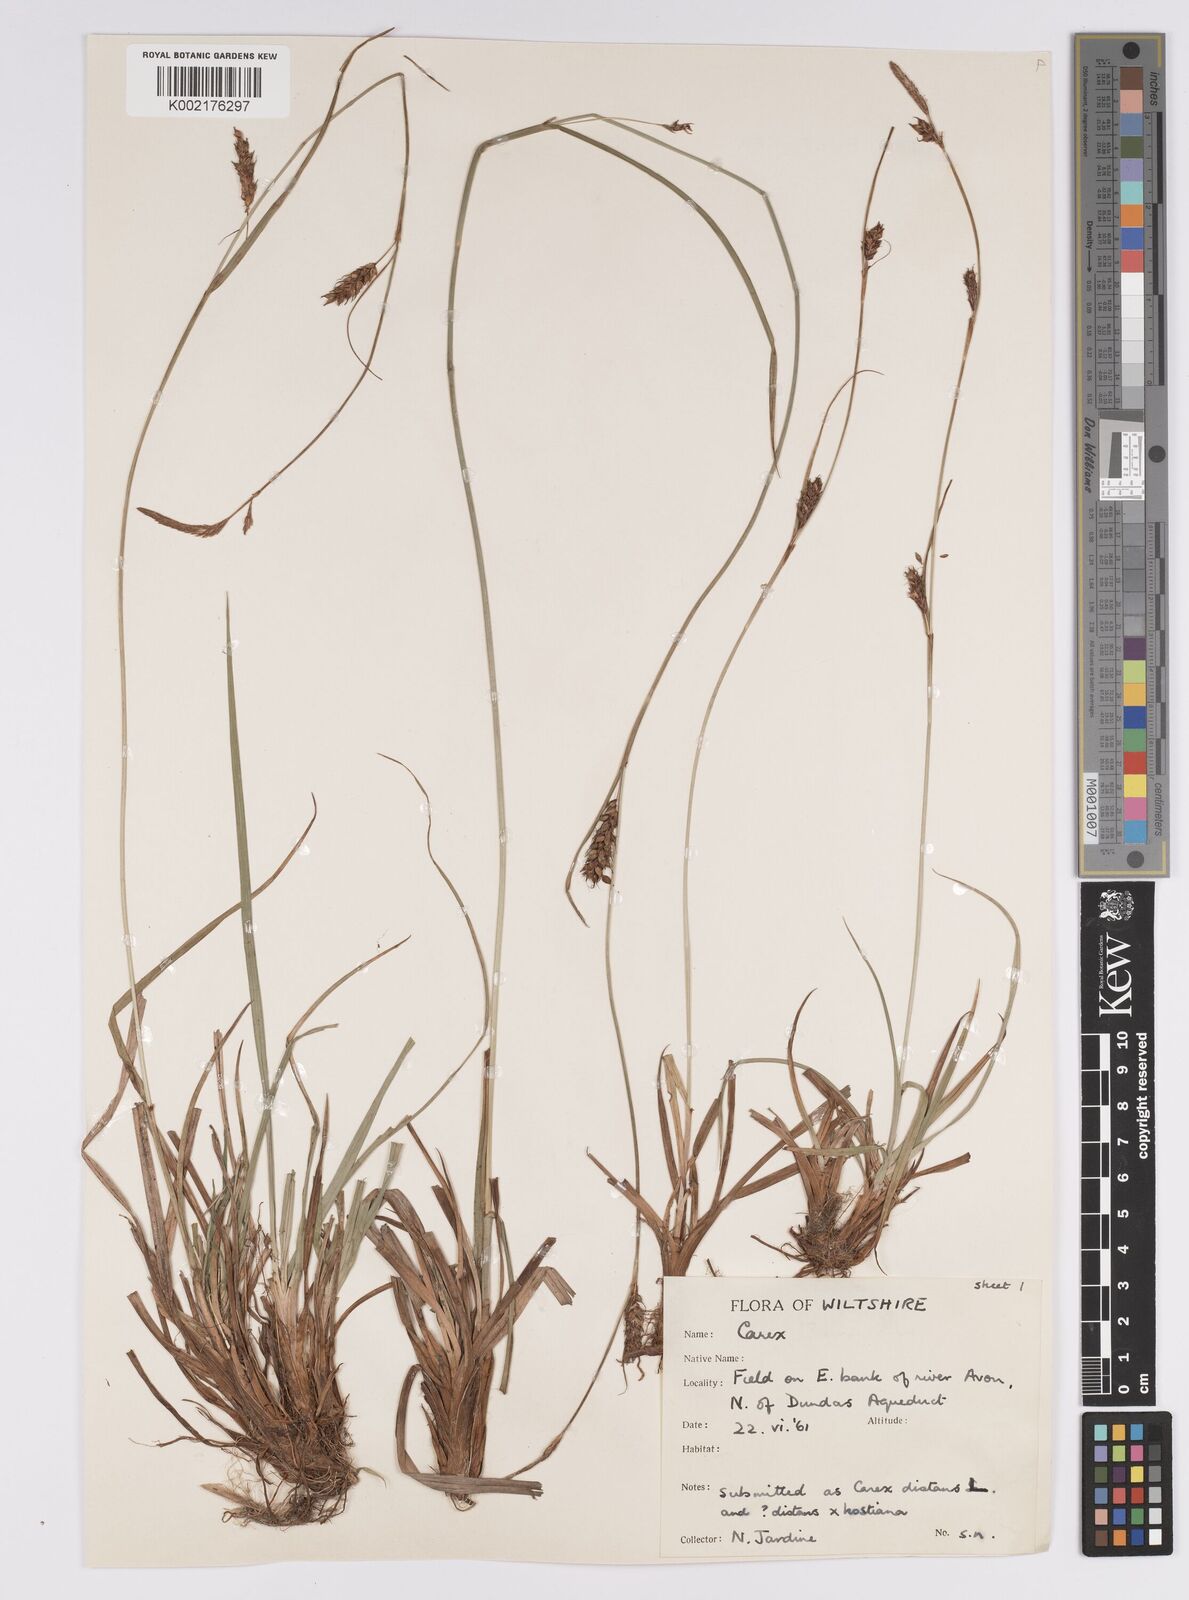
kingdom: Plantae
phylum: Tracheophyta
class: Liliopsida
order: Poales
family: Cyperaceae
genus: Carex
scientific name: Carex distans
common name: Distant sedge
